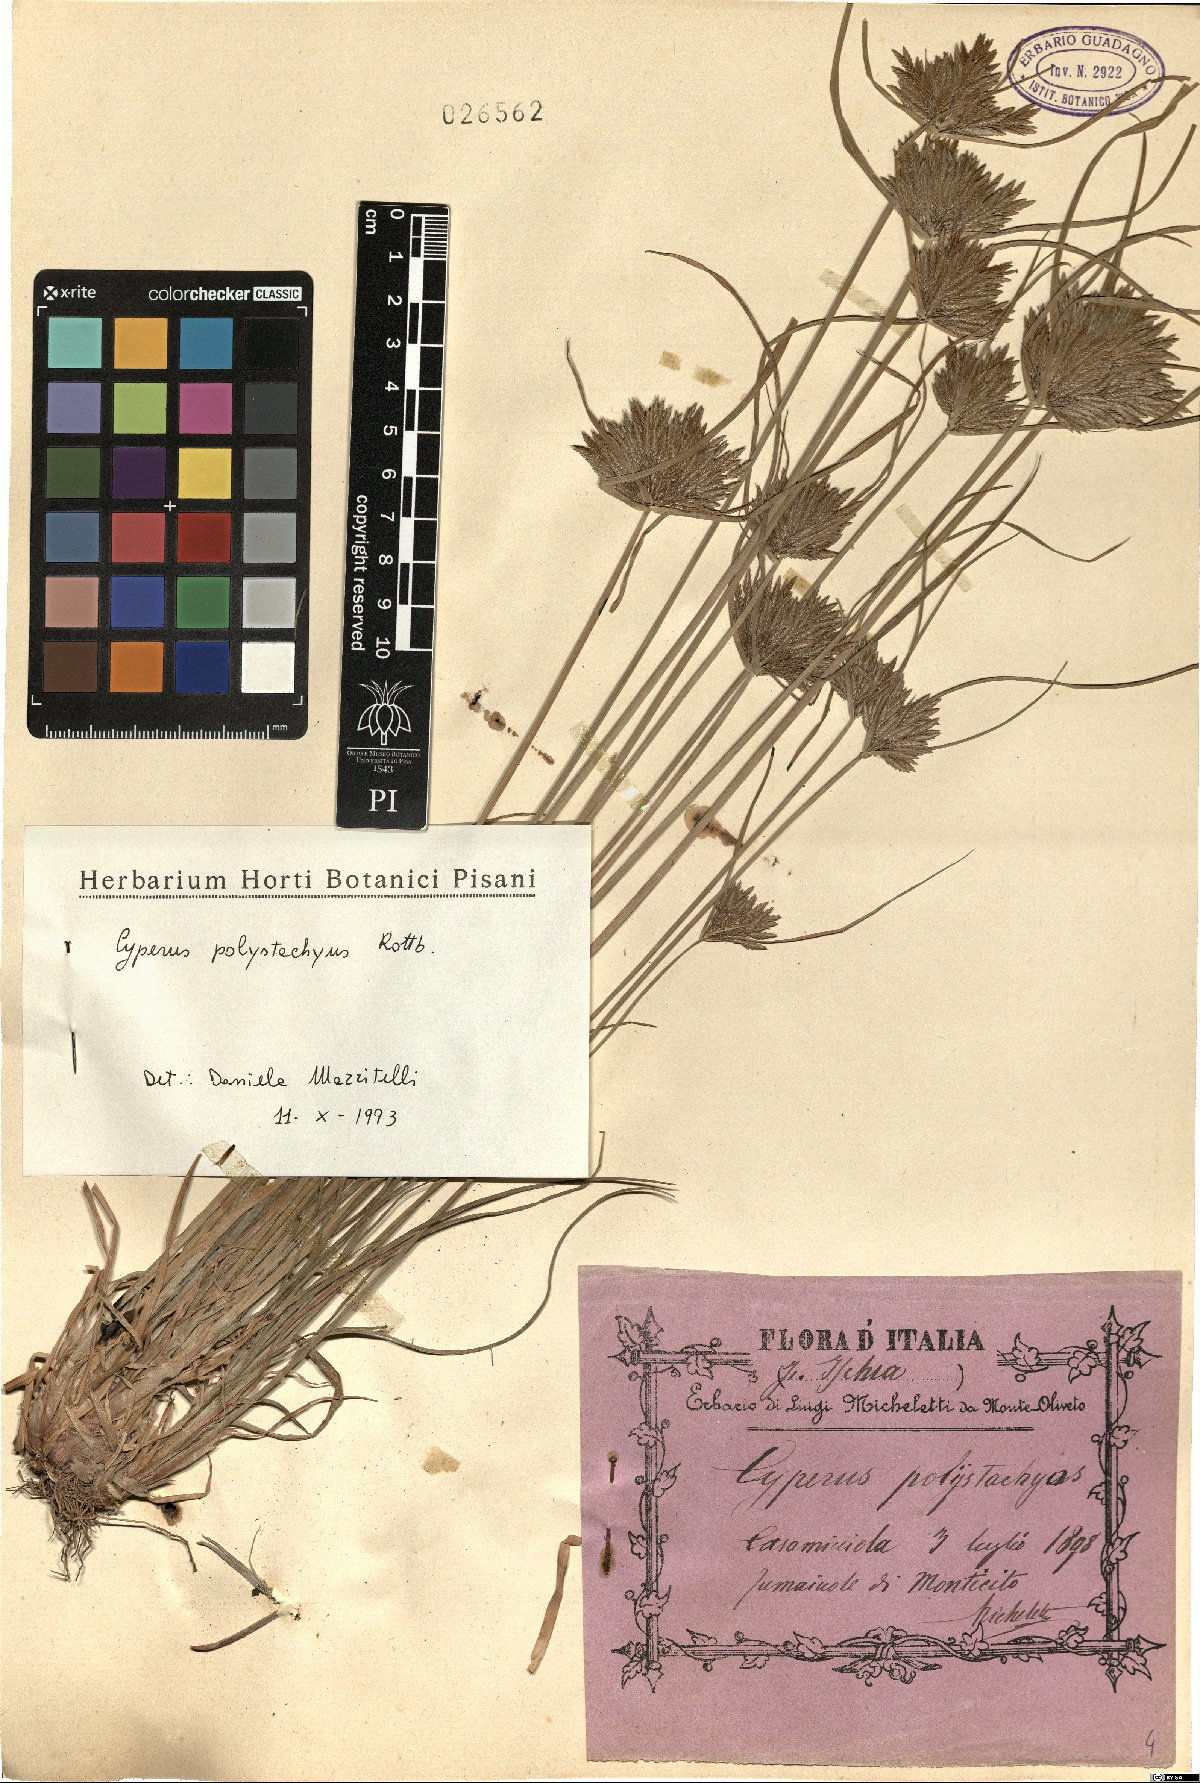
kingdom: Plantae
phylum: Tracheophyta
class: Liliopsida
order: Poales
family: Cyperaceae
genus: Cyperus
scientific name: Cyperus polystachyos
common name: Bunchy flat sedge
